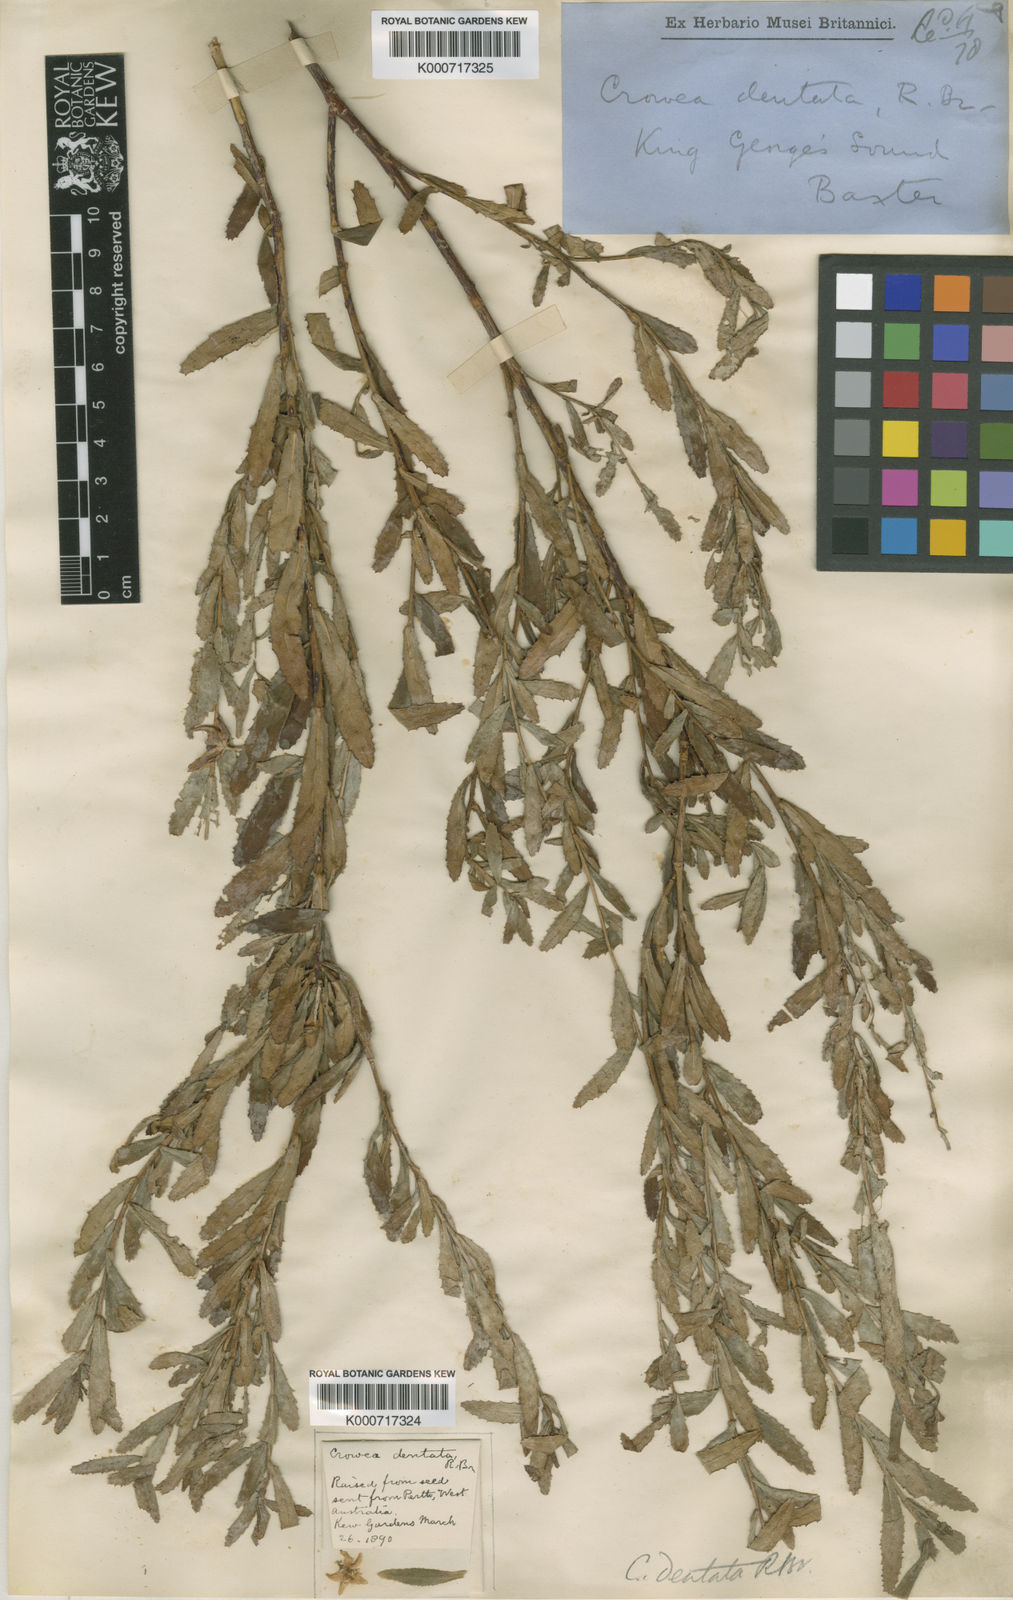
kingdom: Plantae
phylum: Tracheophyta
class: Magnoliopsida
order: Sapindales
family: Rutaceae
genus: Crowea
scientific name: Crowea angustifolia
